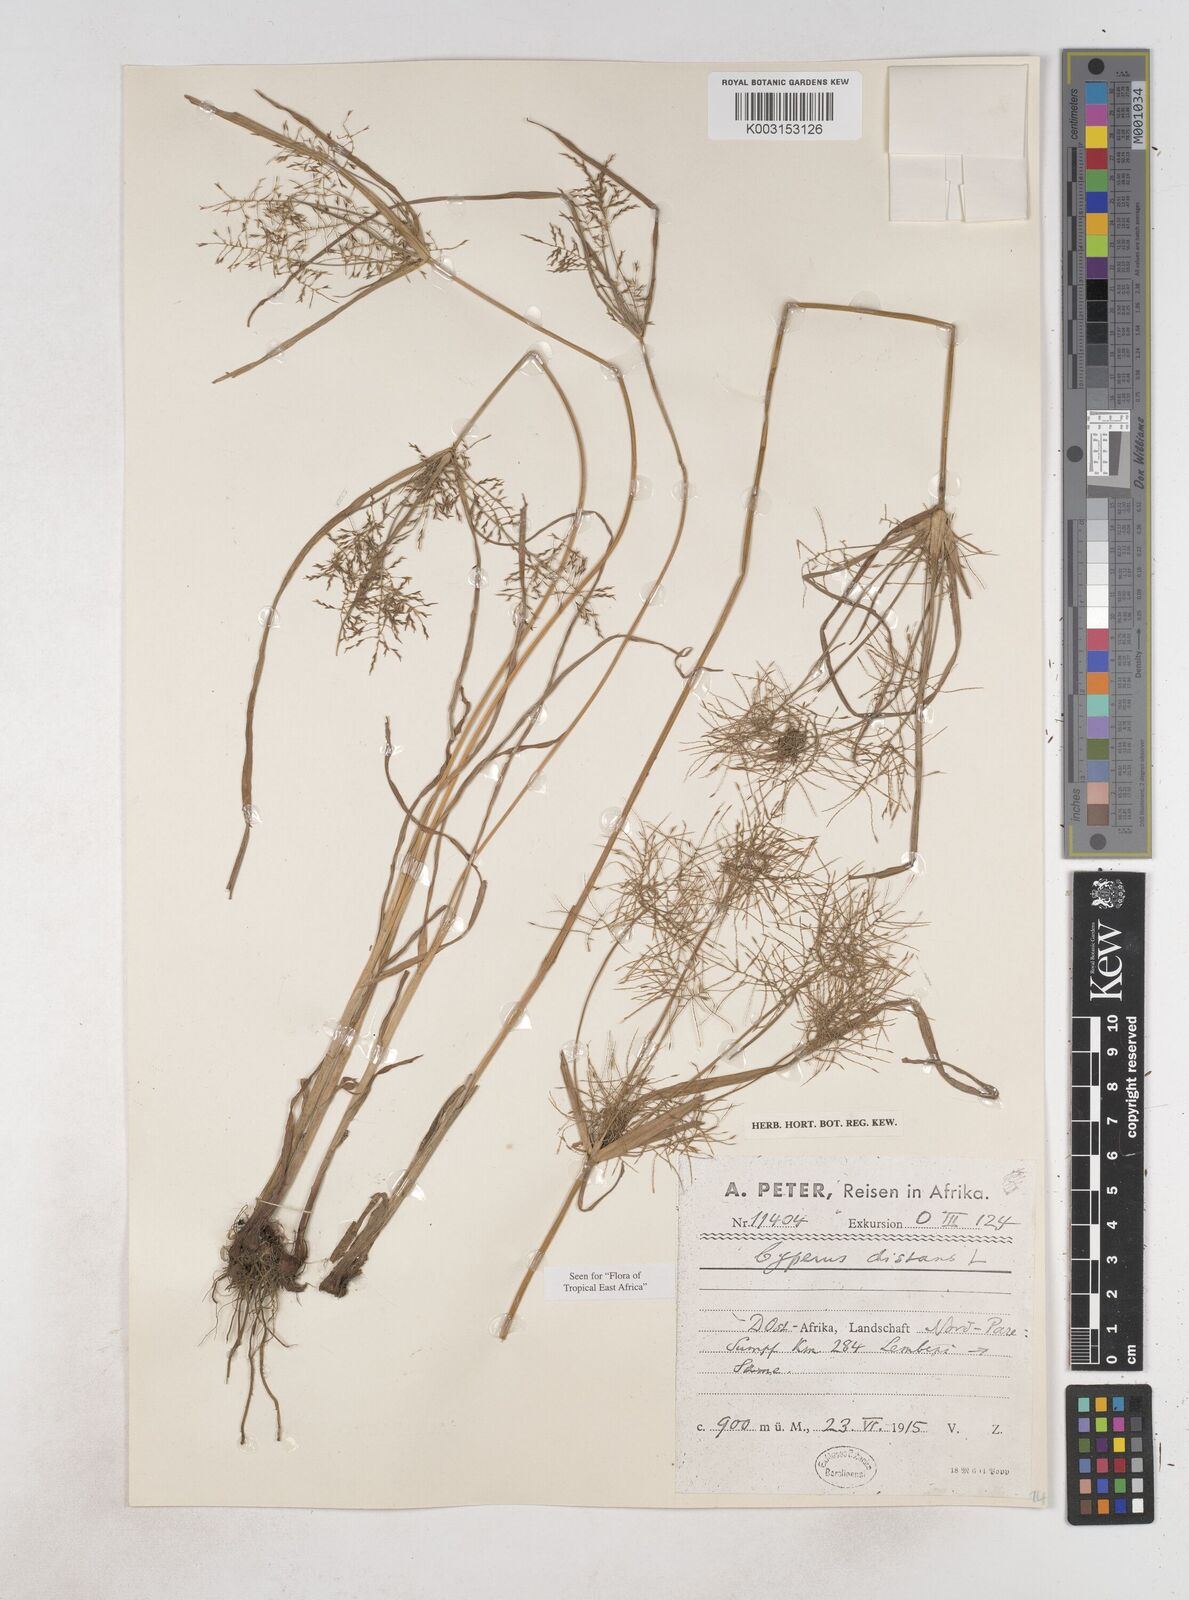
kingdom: Plantae
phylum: Tracheophyta
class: Liliopsida
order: Poales
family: Cyperaceae
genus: Cyperus
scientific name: Cyperus distans
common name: Slender cyperus
